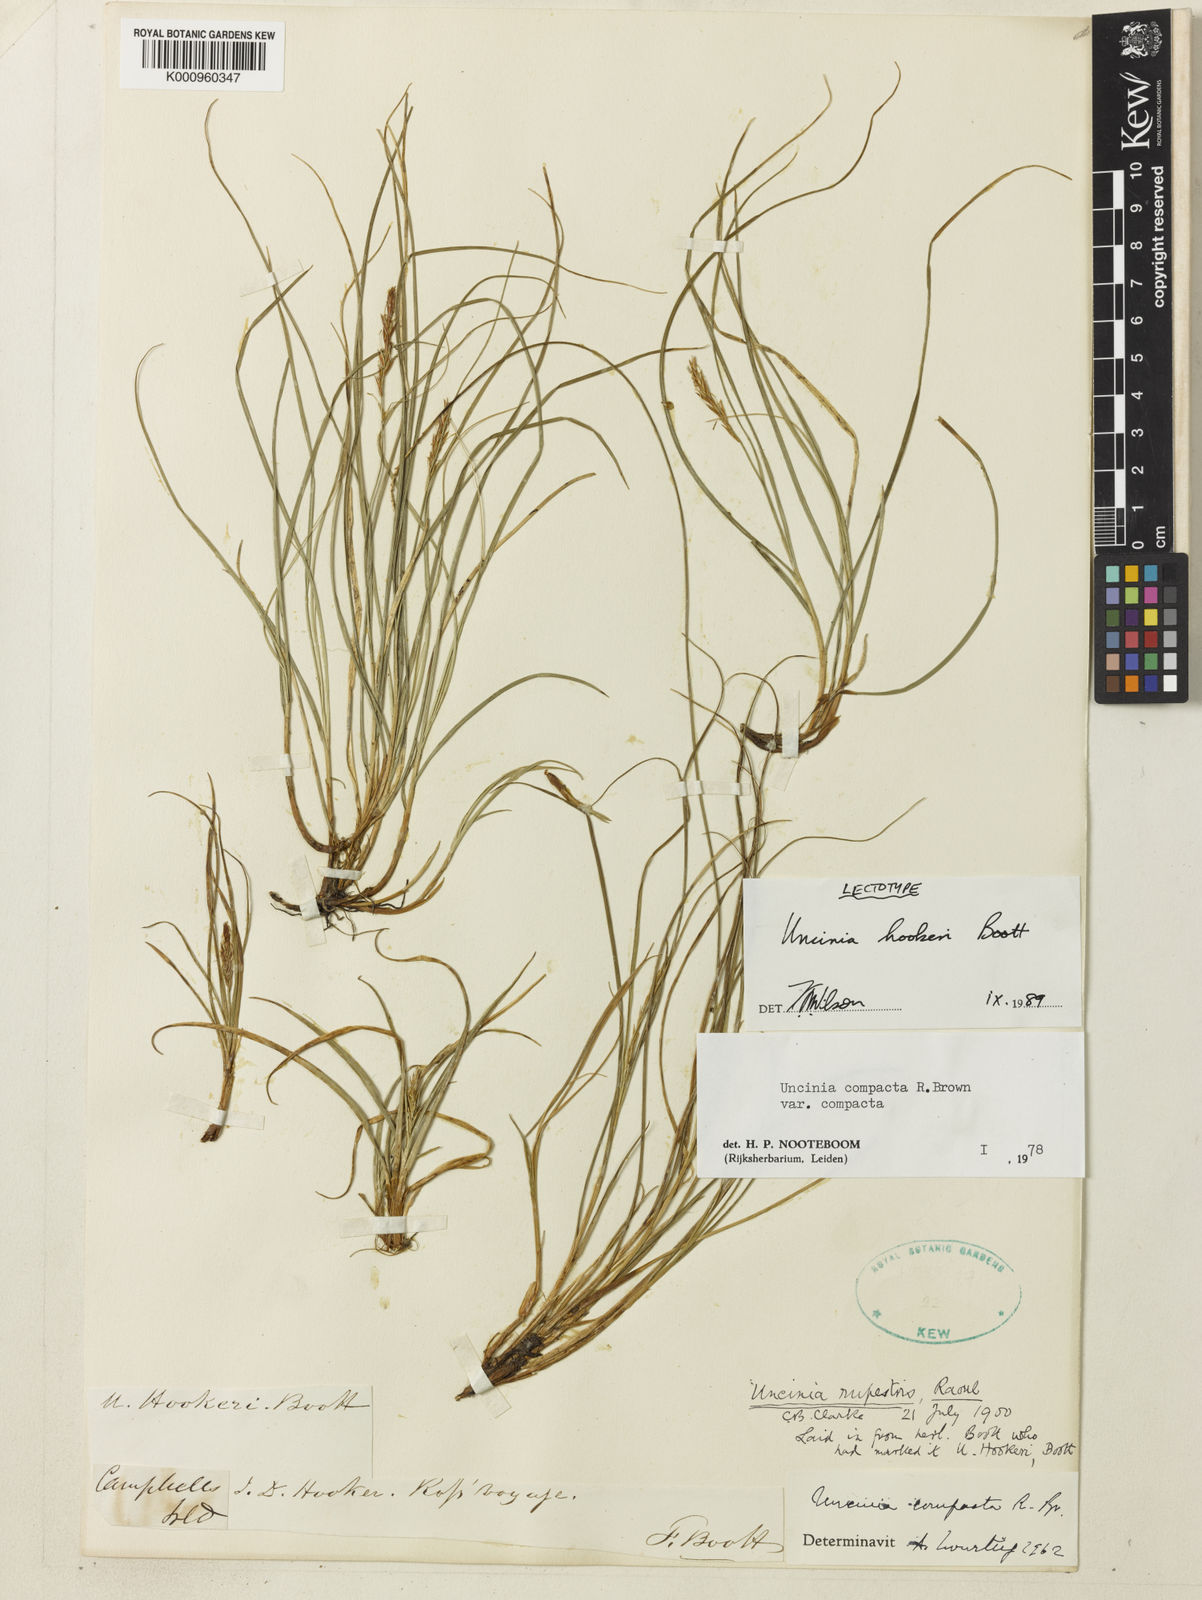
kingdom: Plantae
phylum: Tracheophyta
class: Liliopsida
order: Poales
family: Cyperaceae
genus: Carex
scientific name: Carex erebus
